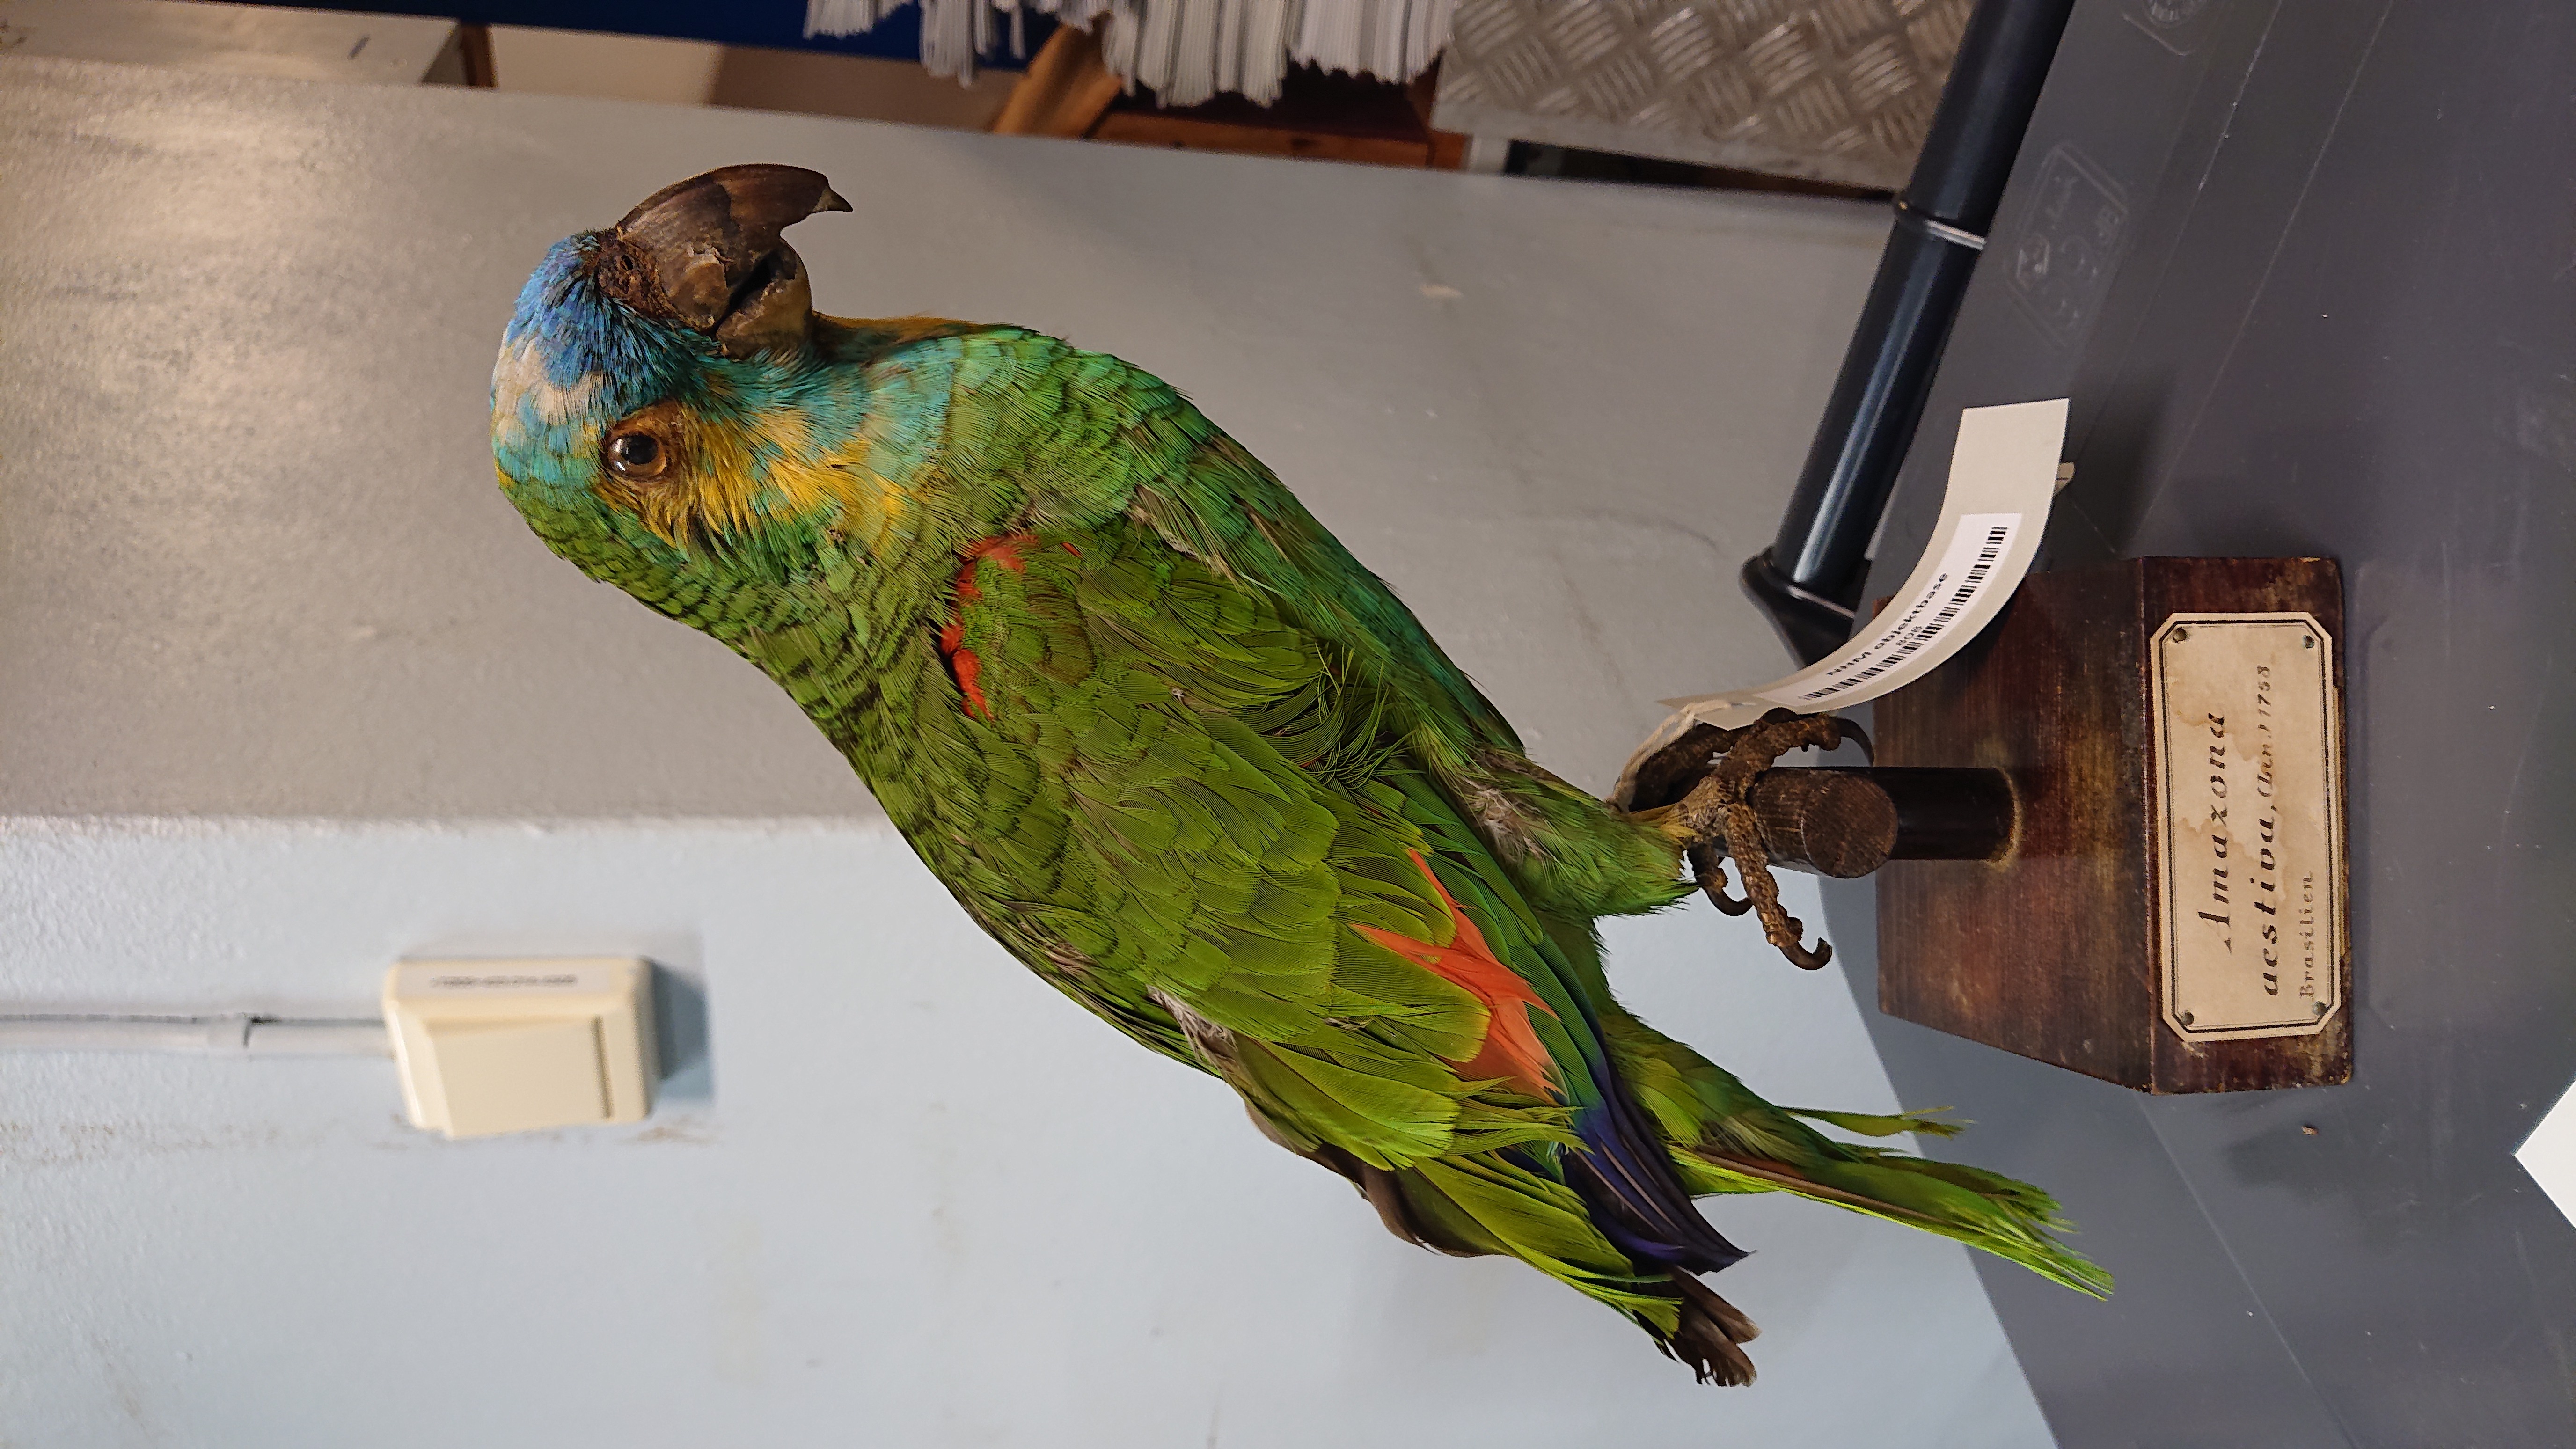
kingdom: Animalia
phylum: Chordata
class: Aves
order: Psittaciformes
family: Psittacidae
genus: Amazona
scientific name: Amazona aestiva
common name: Turquoise-fronted amazon
